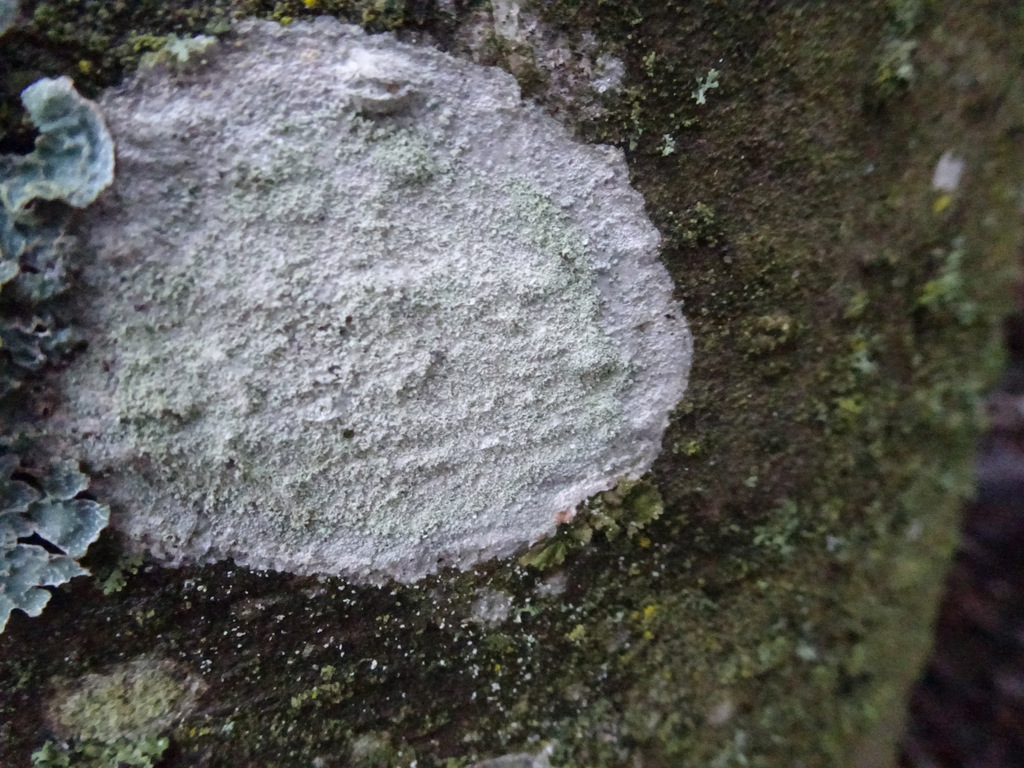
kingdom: Fungi
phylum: Ascomycota
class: Lecanoromycetes
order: Ostropales
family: Phlyctidaceae
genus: Phlyctis
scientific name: Phlyctis argena
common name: almindelig sølvlav
